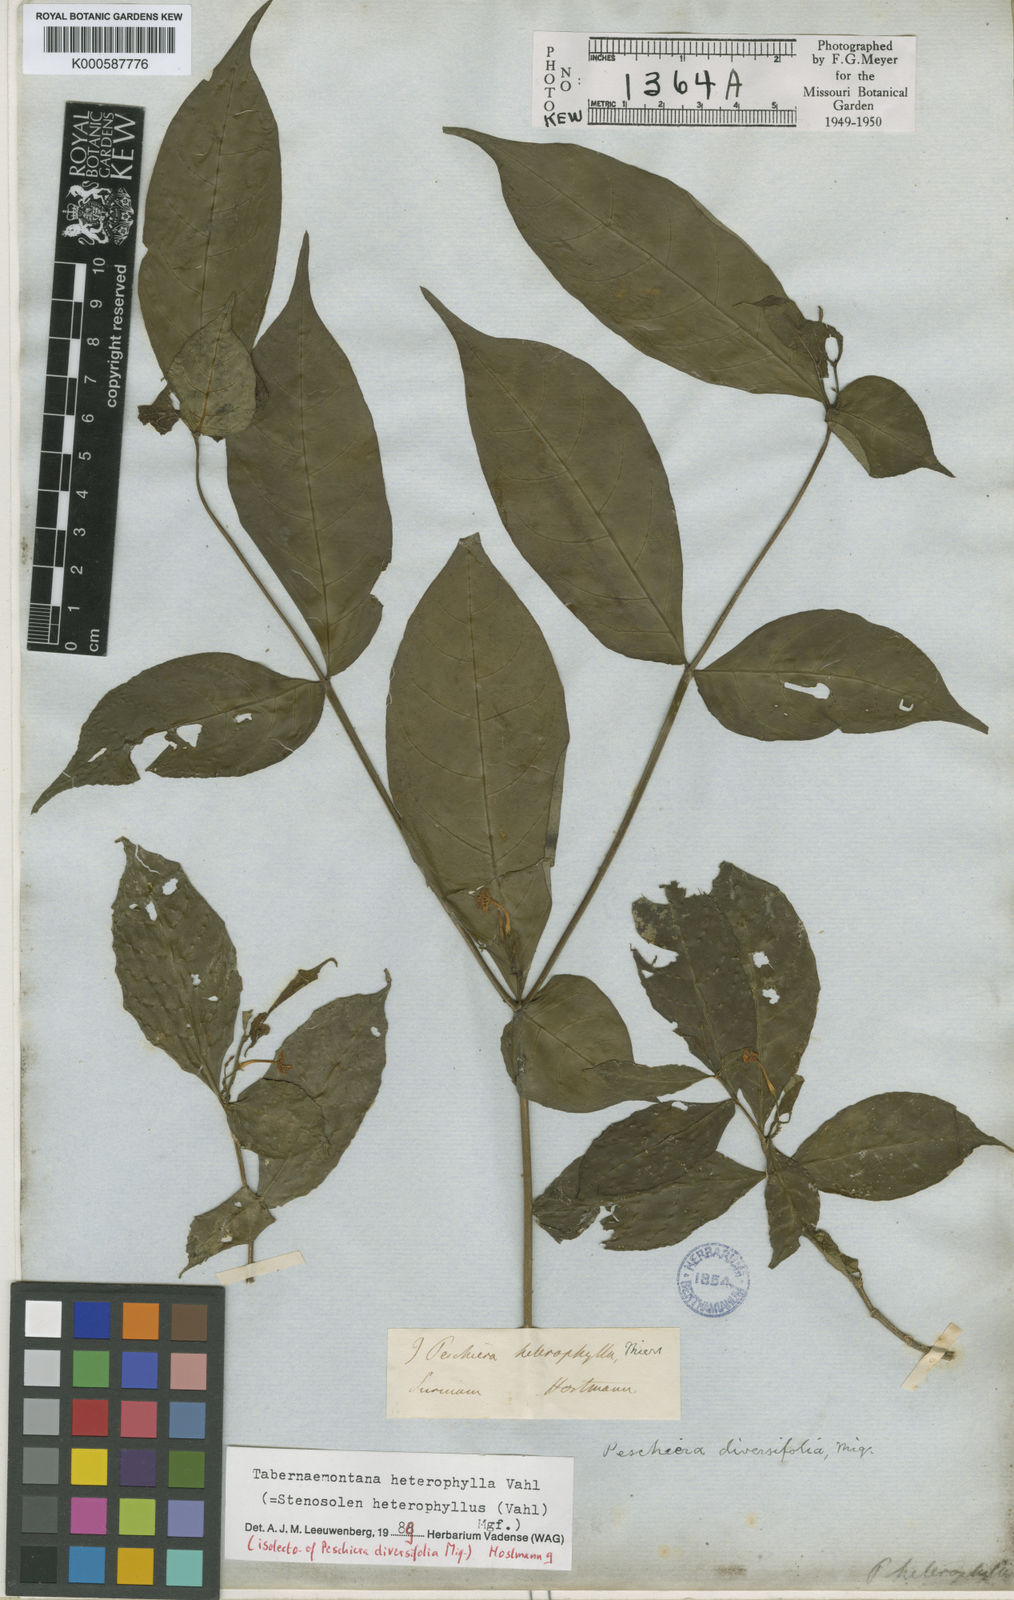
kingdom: Plantae
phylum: Tracheophyta
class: Magnoliopsida
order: Gentianales
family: Apocynaceae
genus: Tabernaemontana
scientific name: Tabernaemontana heterophylla
